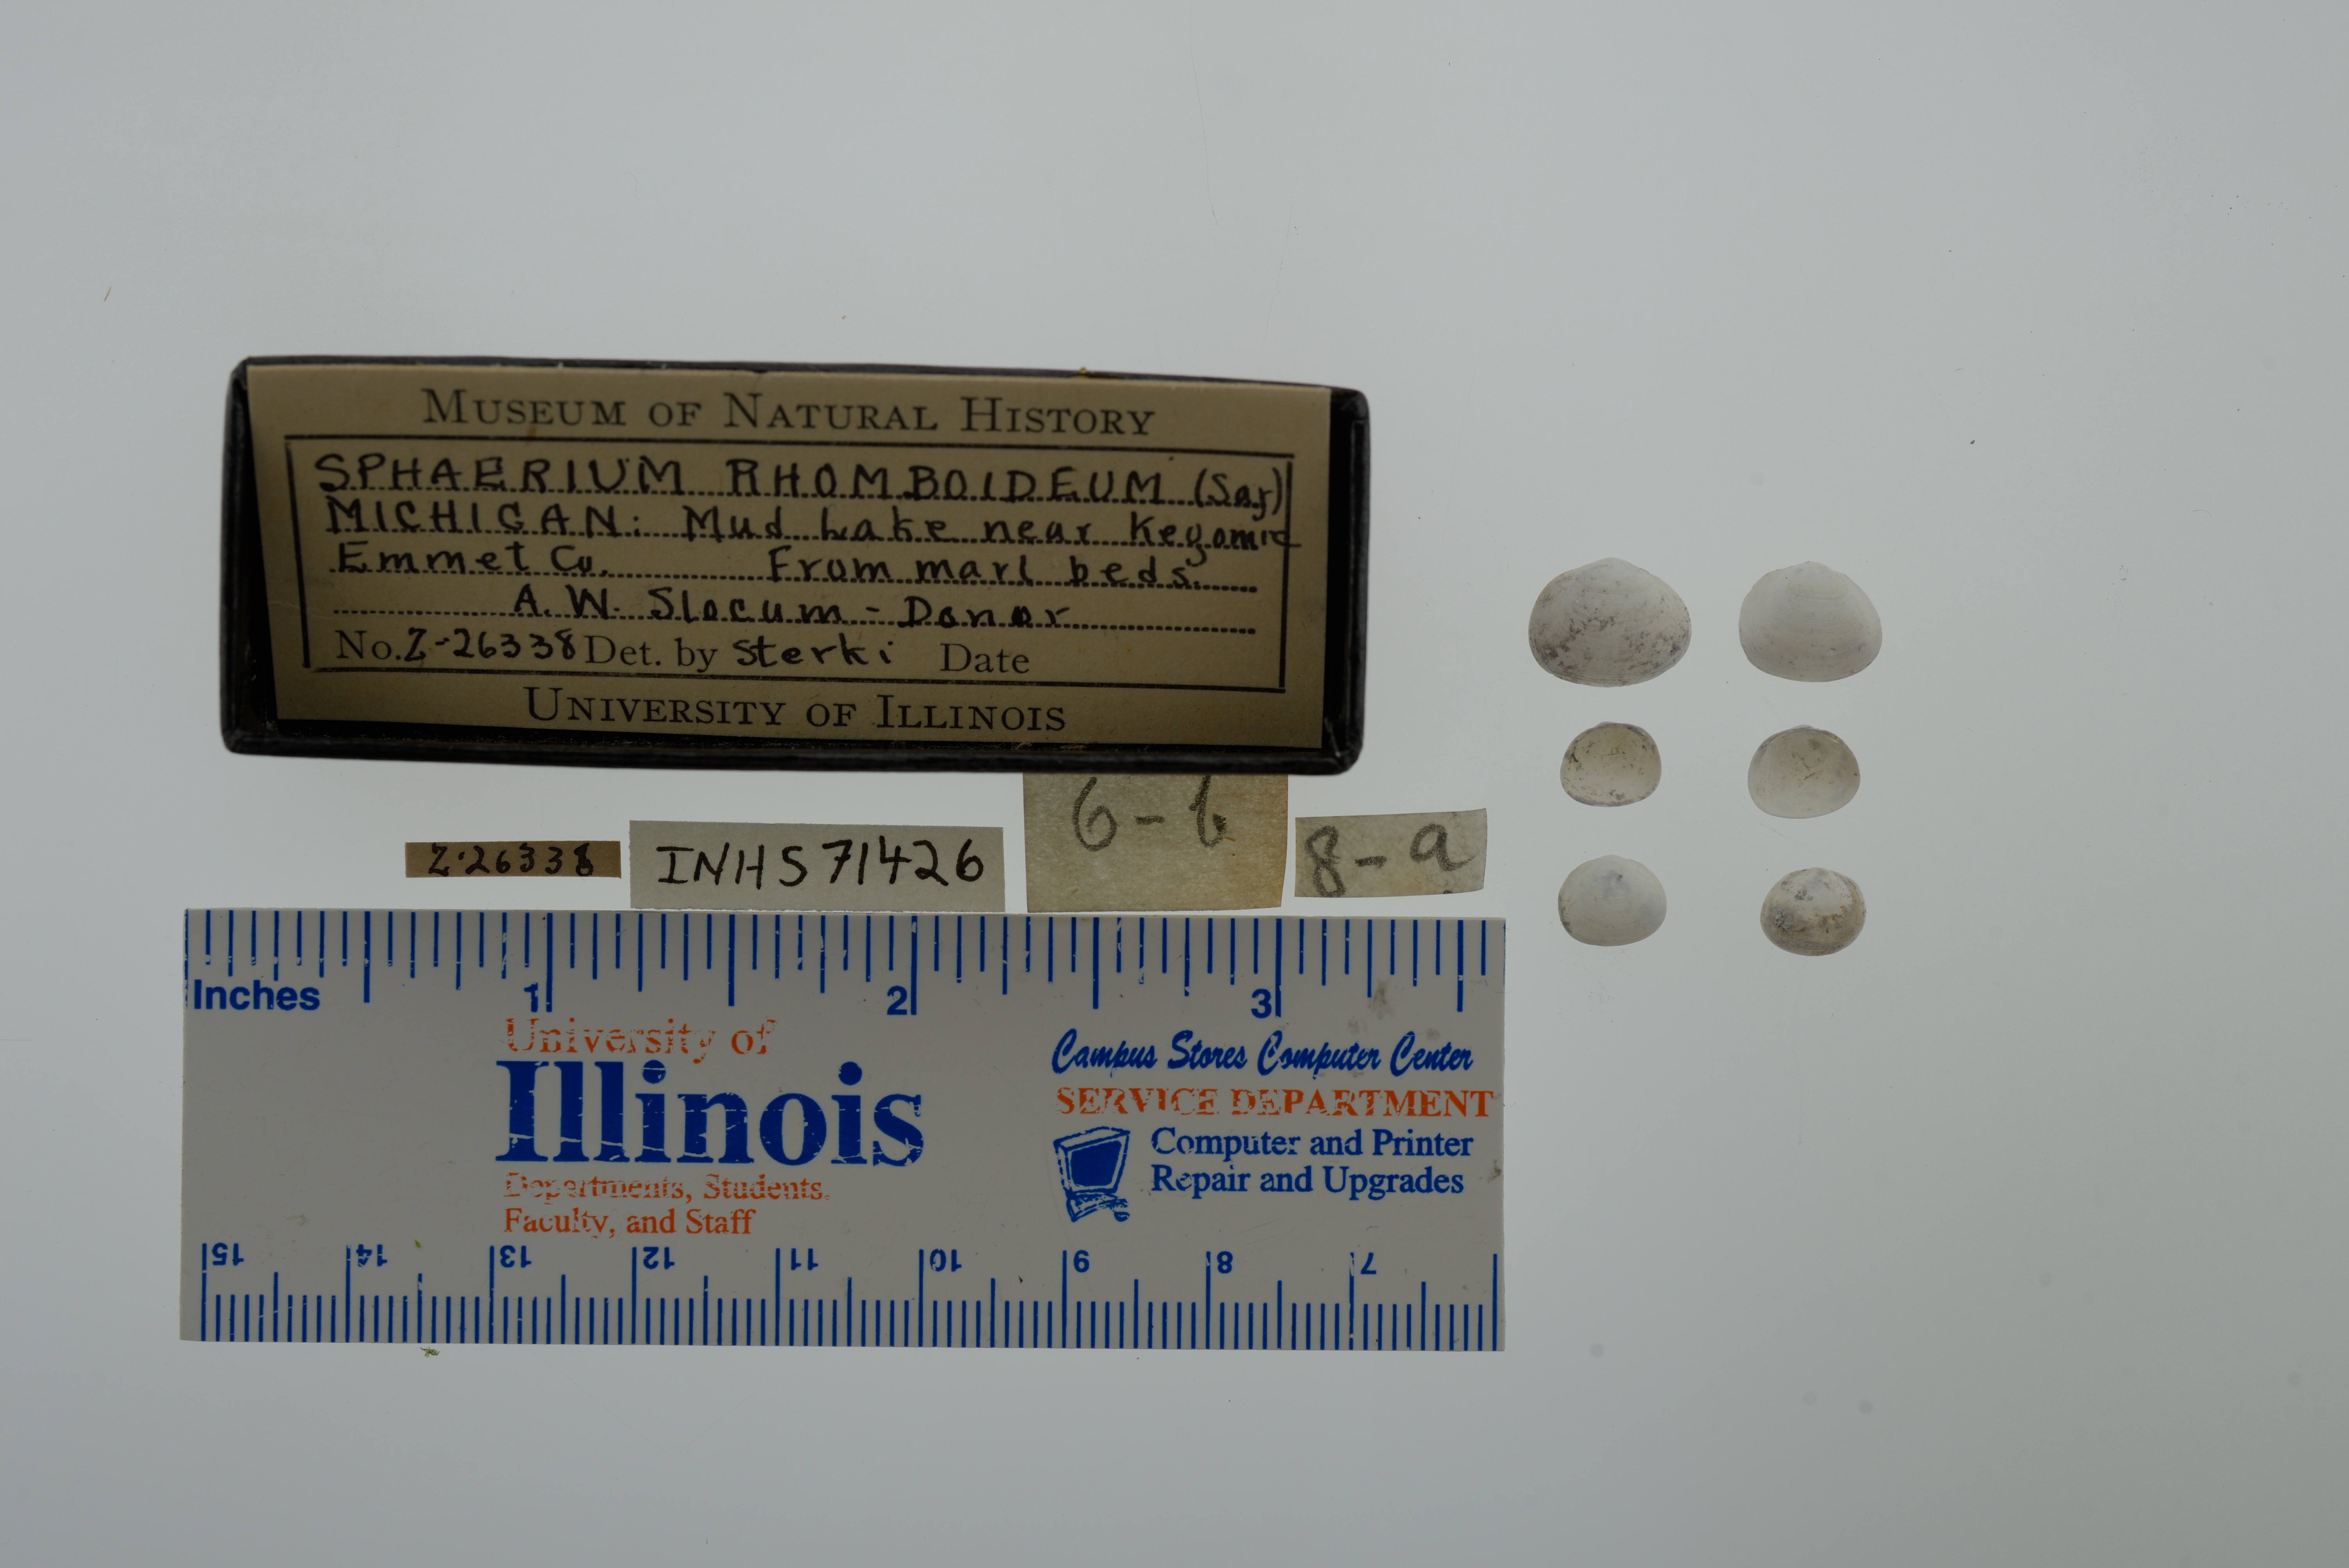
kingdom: Animalia
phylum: Mollusca
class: Bivalvia
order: Sphaeriida
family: Sphaeriidae
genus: Sphaerium
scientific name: Sphaerium rhomboideum
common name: Rhomboid fingernailclam
